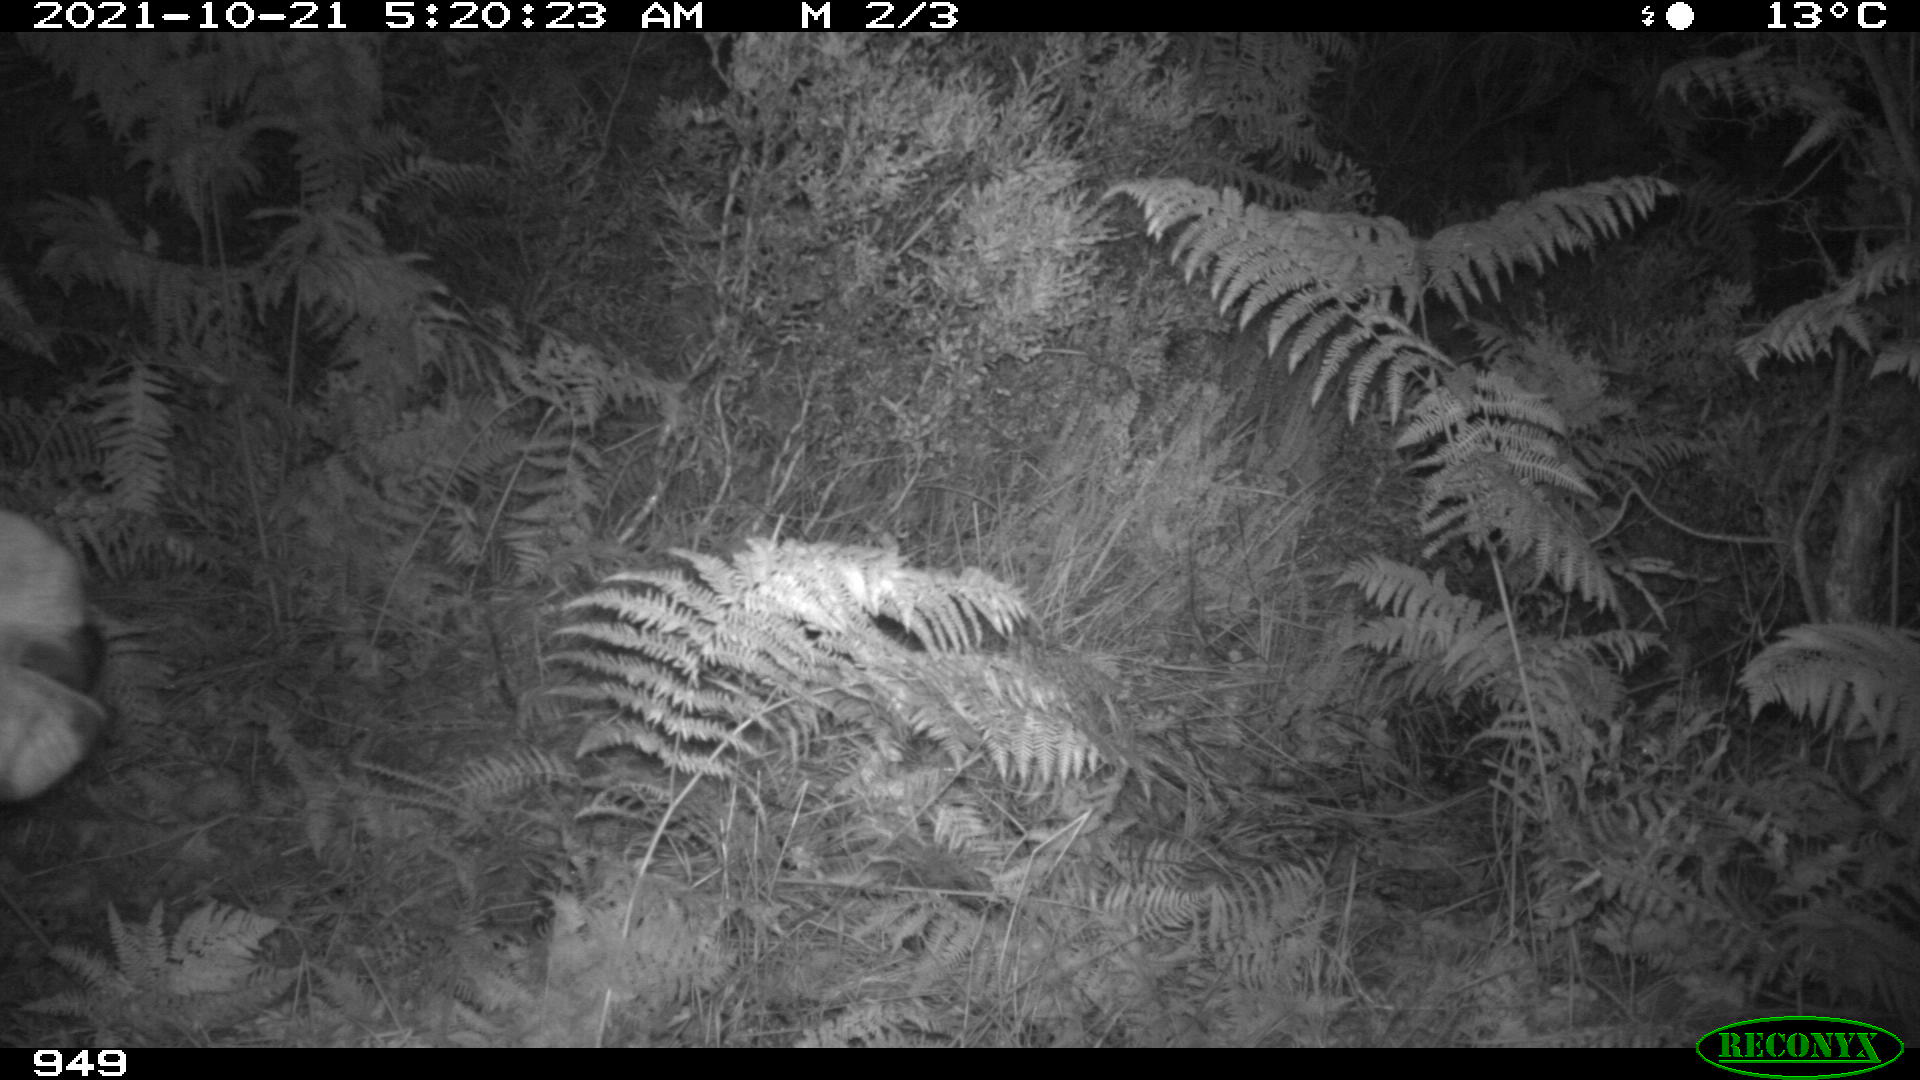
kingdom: Animalia
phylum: Chordata
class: Mammalia
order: Perissodactyla
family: Equidae
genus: Equus
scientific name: Equus caballus
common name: Horse
